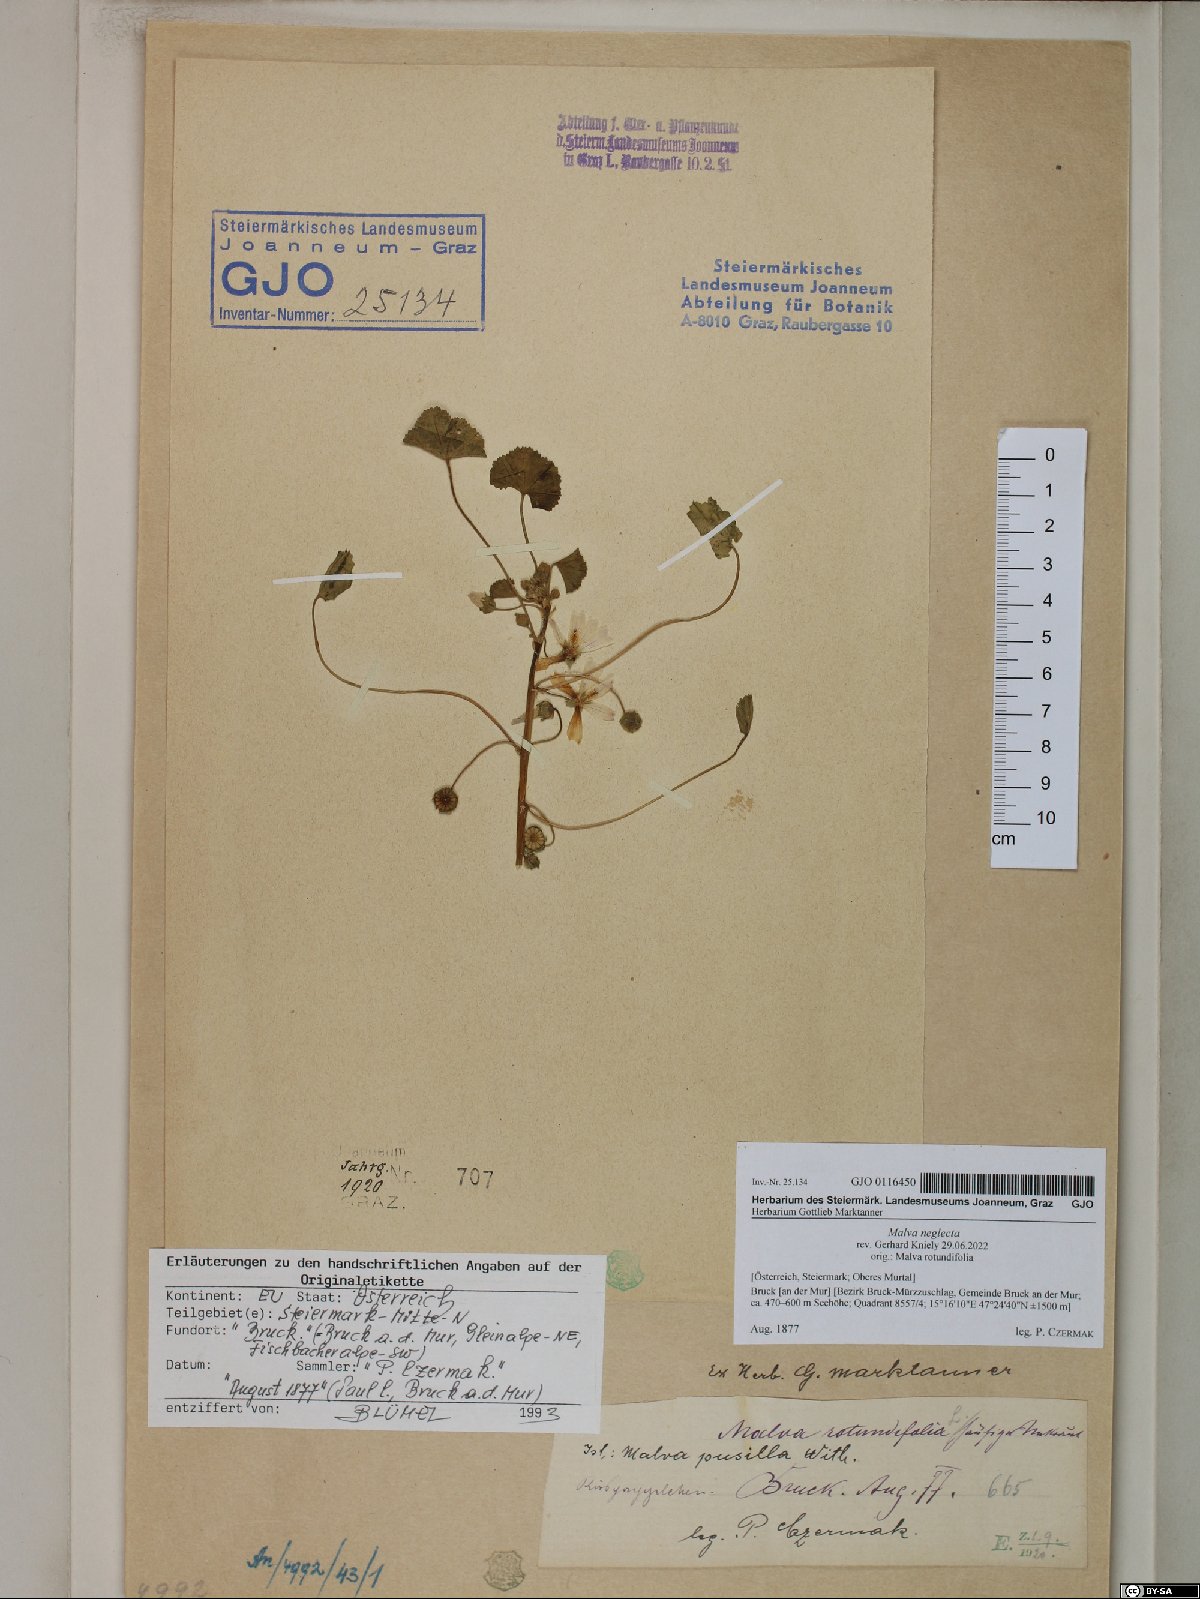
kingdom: Plantae
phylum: Tracheophyta
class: Magnoliopsida
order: Malvales
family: Malvaceae
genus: Malva
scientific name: Malva neglecta
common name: Common mallow
